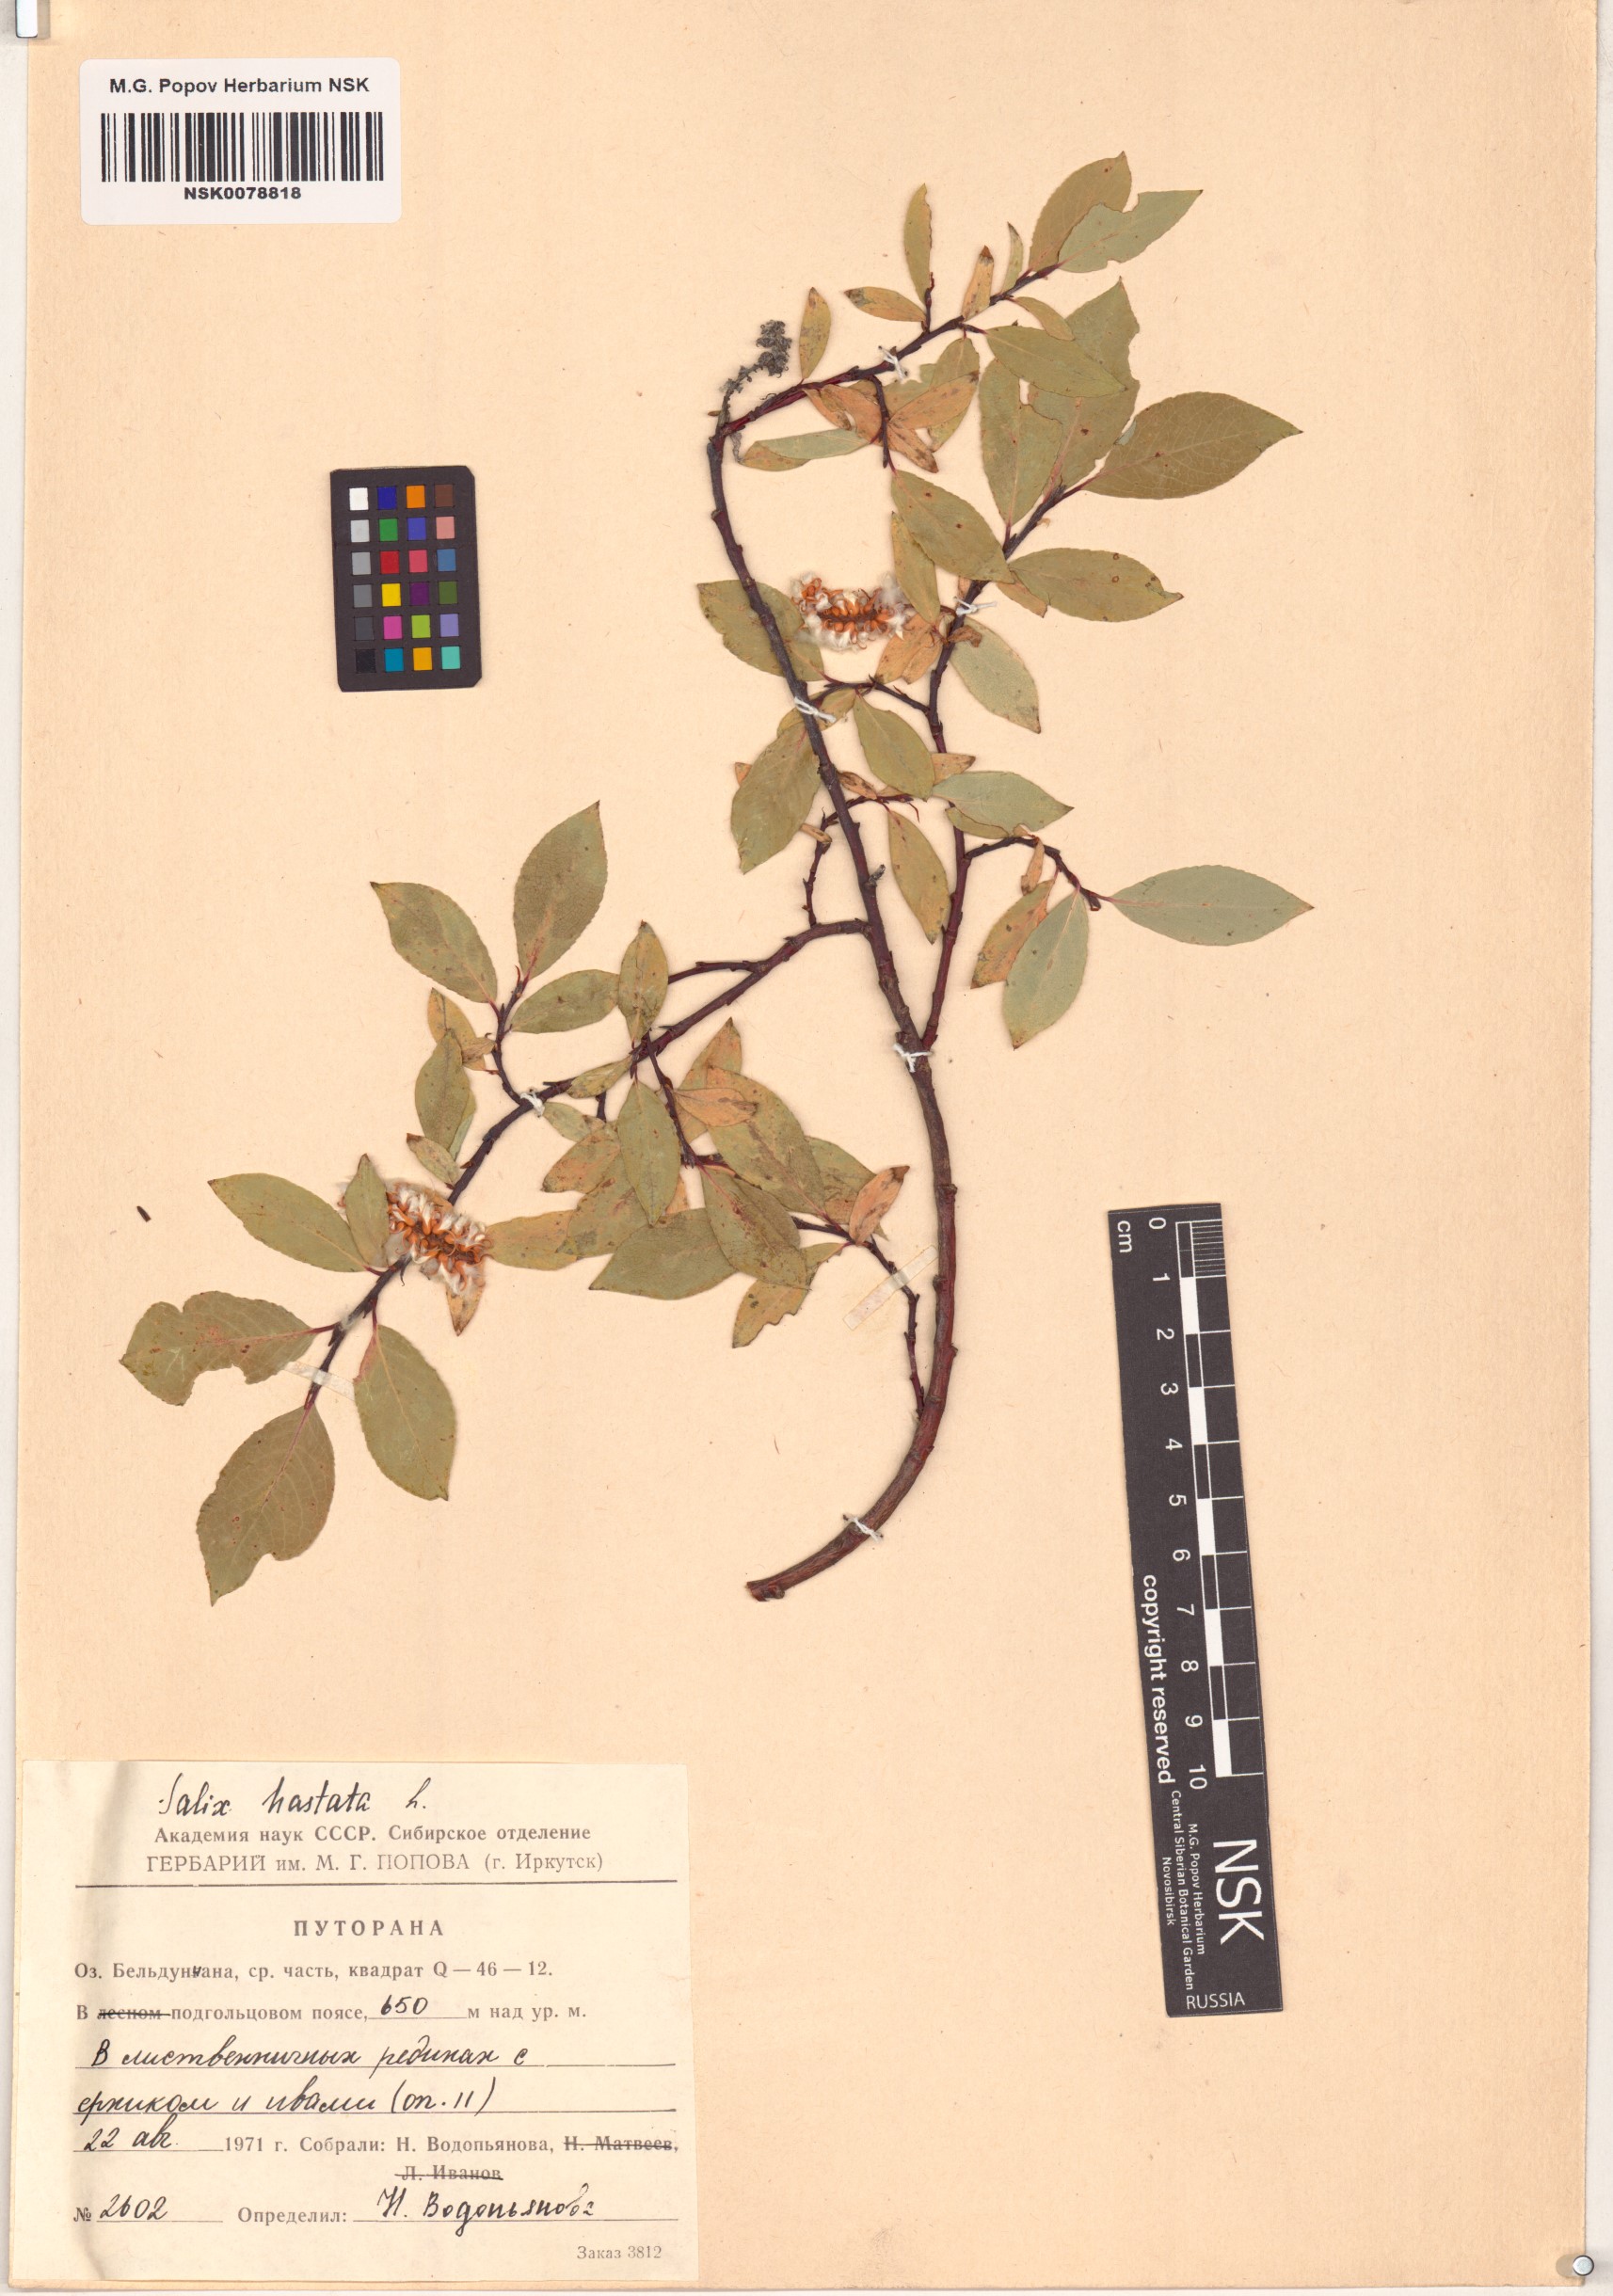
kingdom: Plantae
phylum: Tracheophyta
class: Magnoliopsida
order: Malpighiales
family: Salicaceae
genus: Salix
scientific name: Salix hastata
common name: Halberd willow
